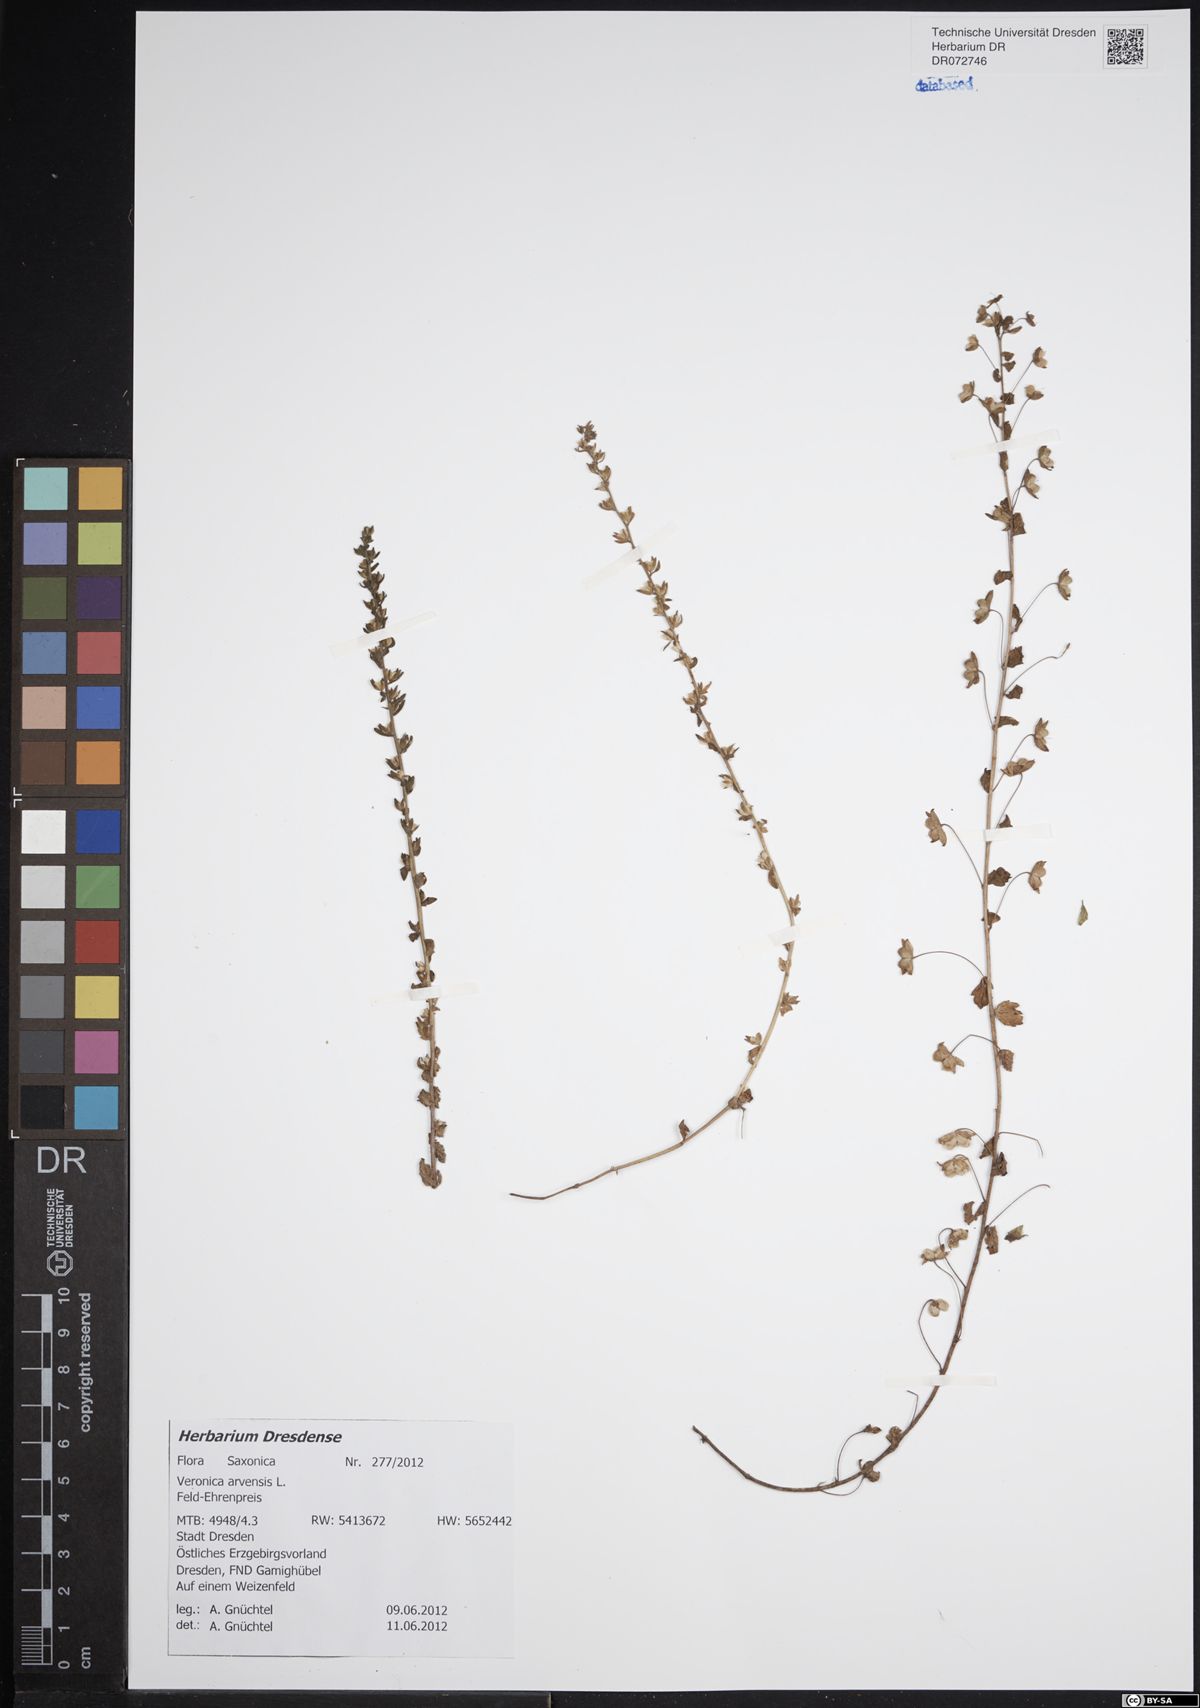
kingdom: Plantae
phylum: Tracheophyta
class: Magnoliopsida
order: Lamiales
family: Plantaginaceae
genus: Veronica
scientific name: Veronica arvensis
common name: Corn speedwell
